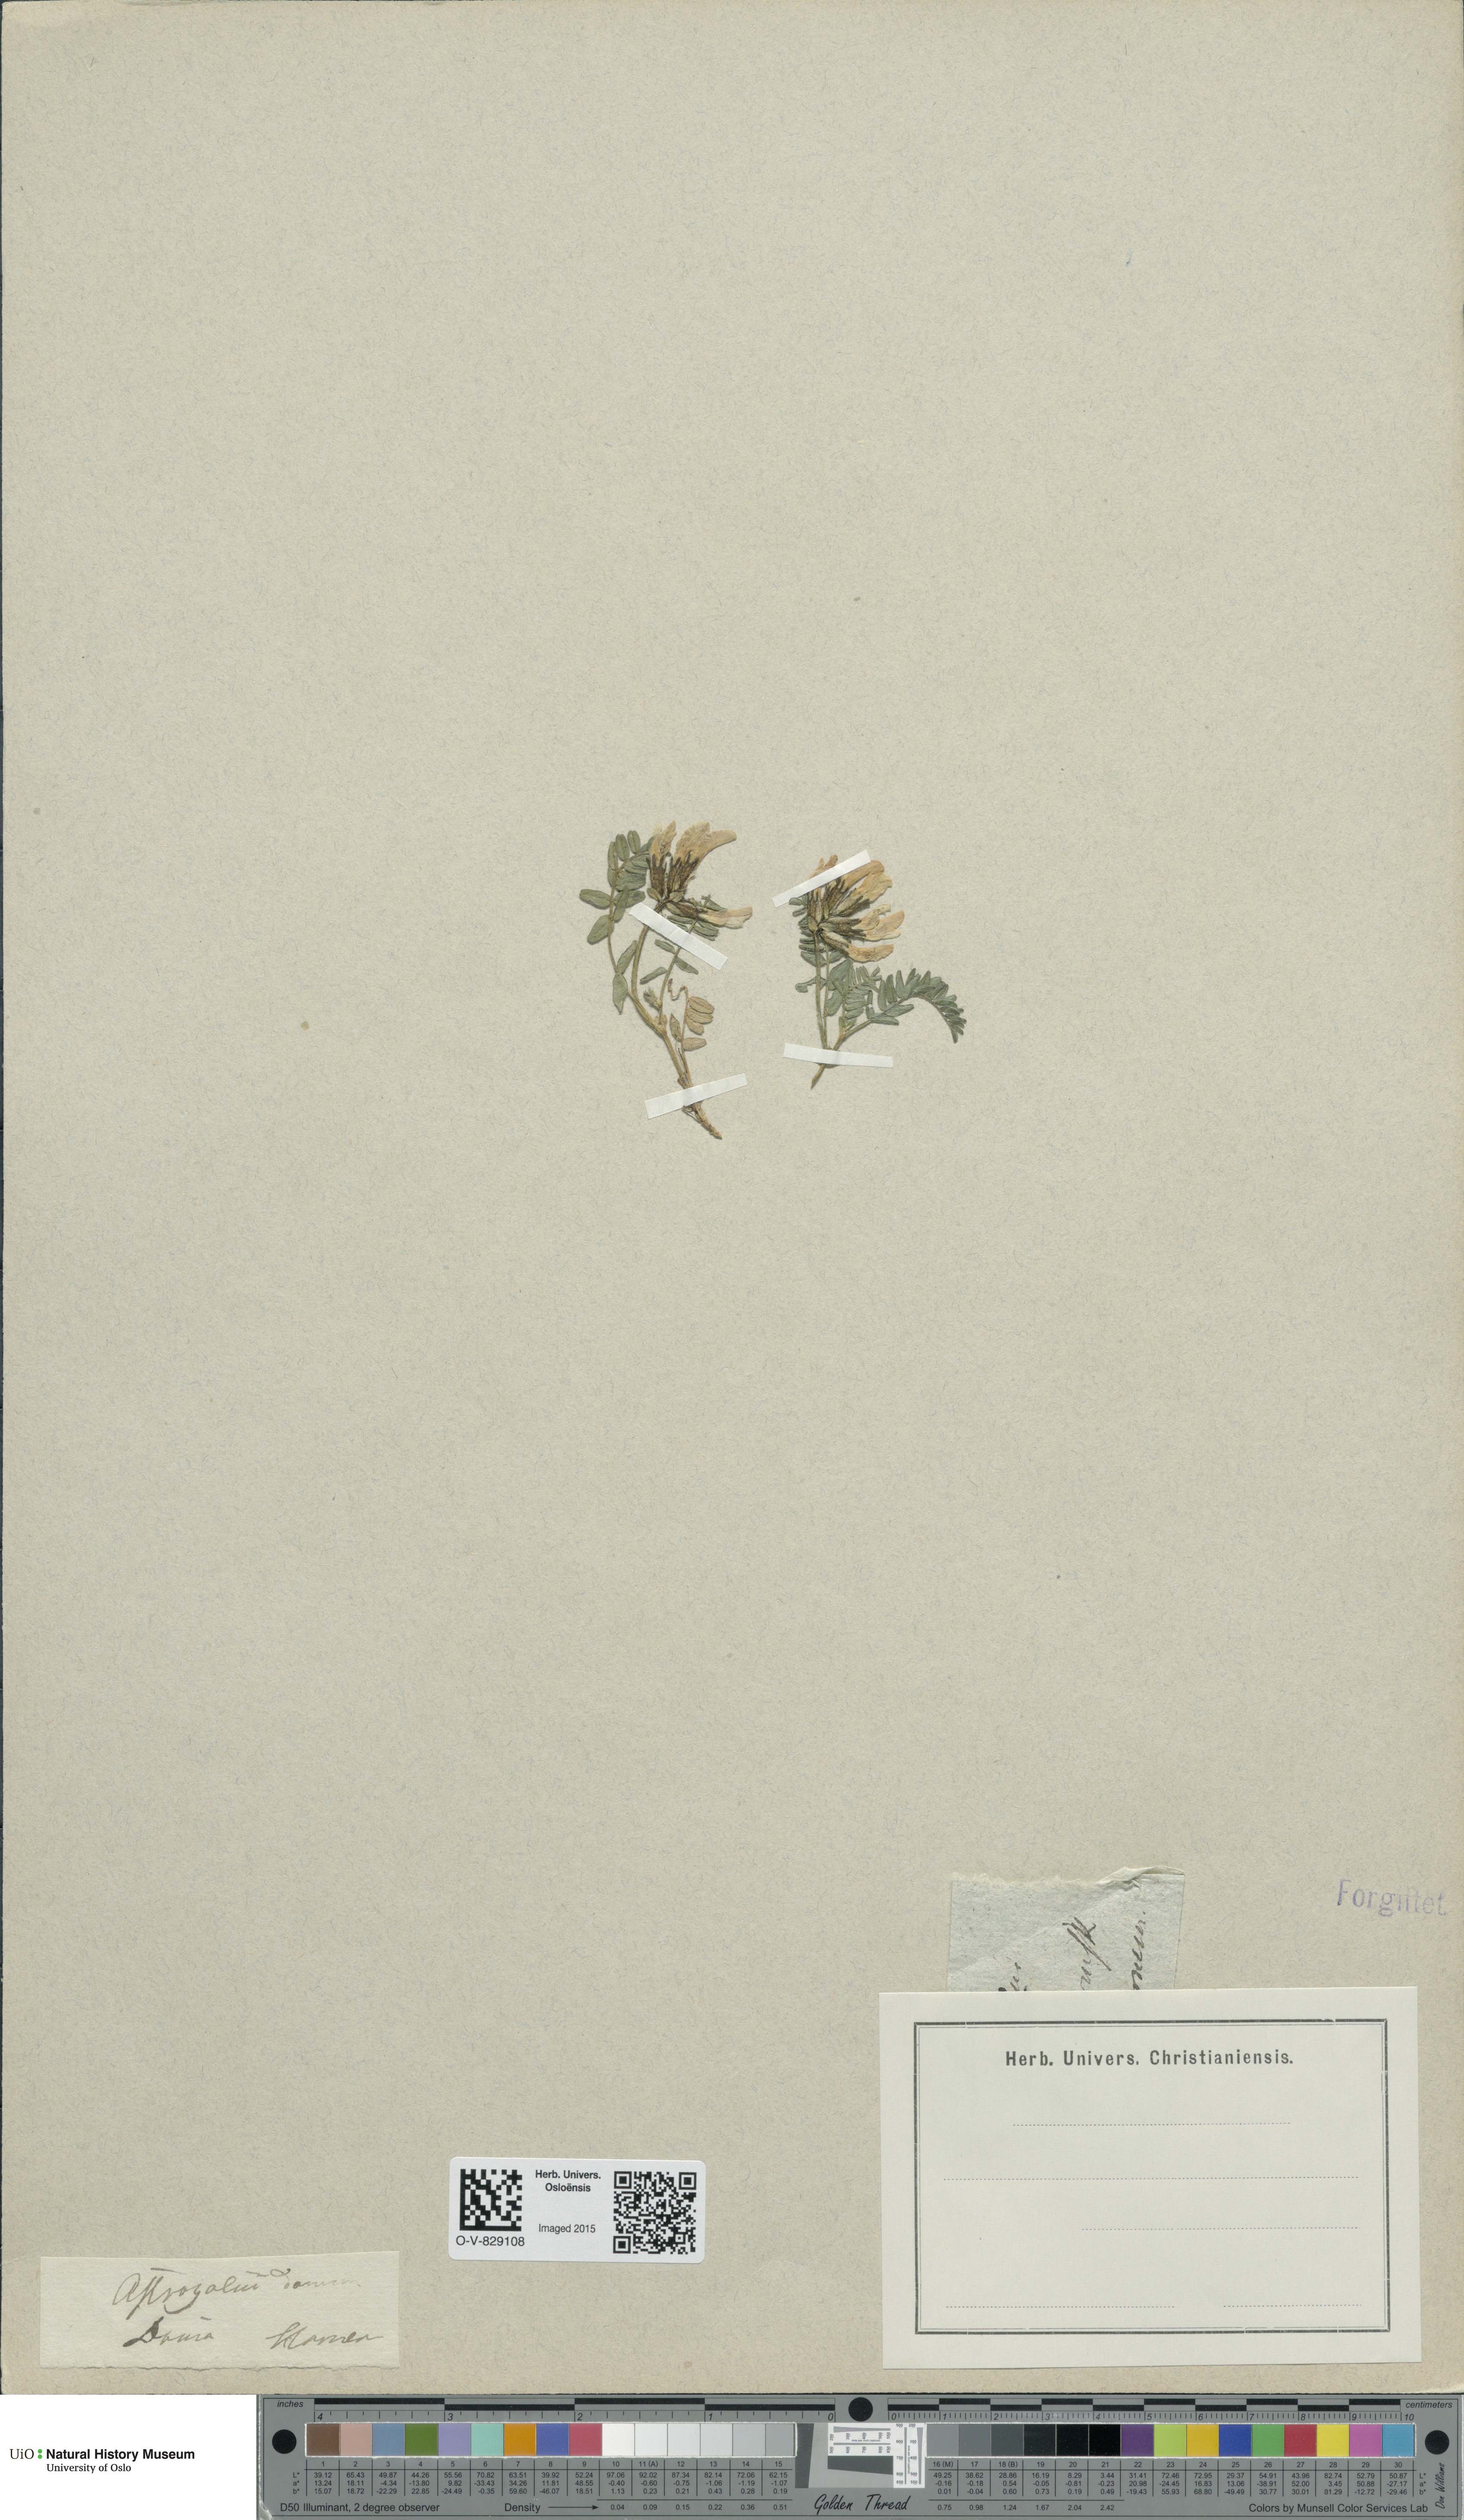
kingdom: Plantae
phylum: Tracheophyta
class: Magnoliopsida
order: Fabales
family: Fabaceae
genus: Astragalus
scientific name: Astragalus danicus
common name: Purple milk-vetch
